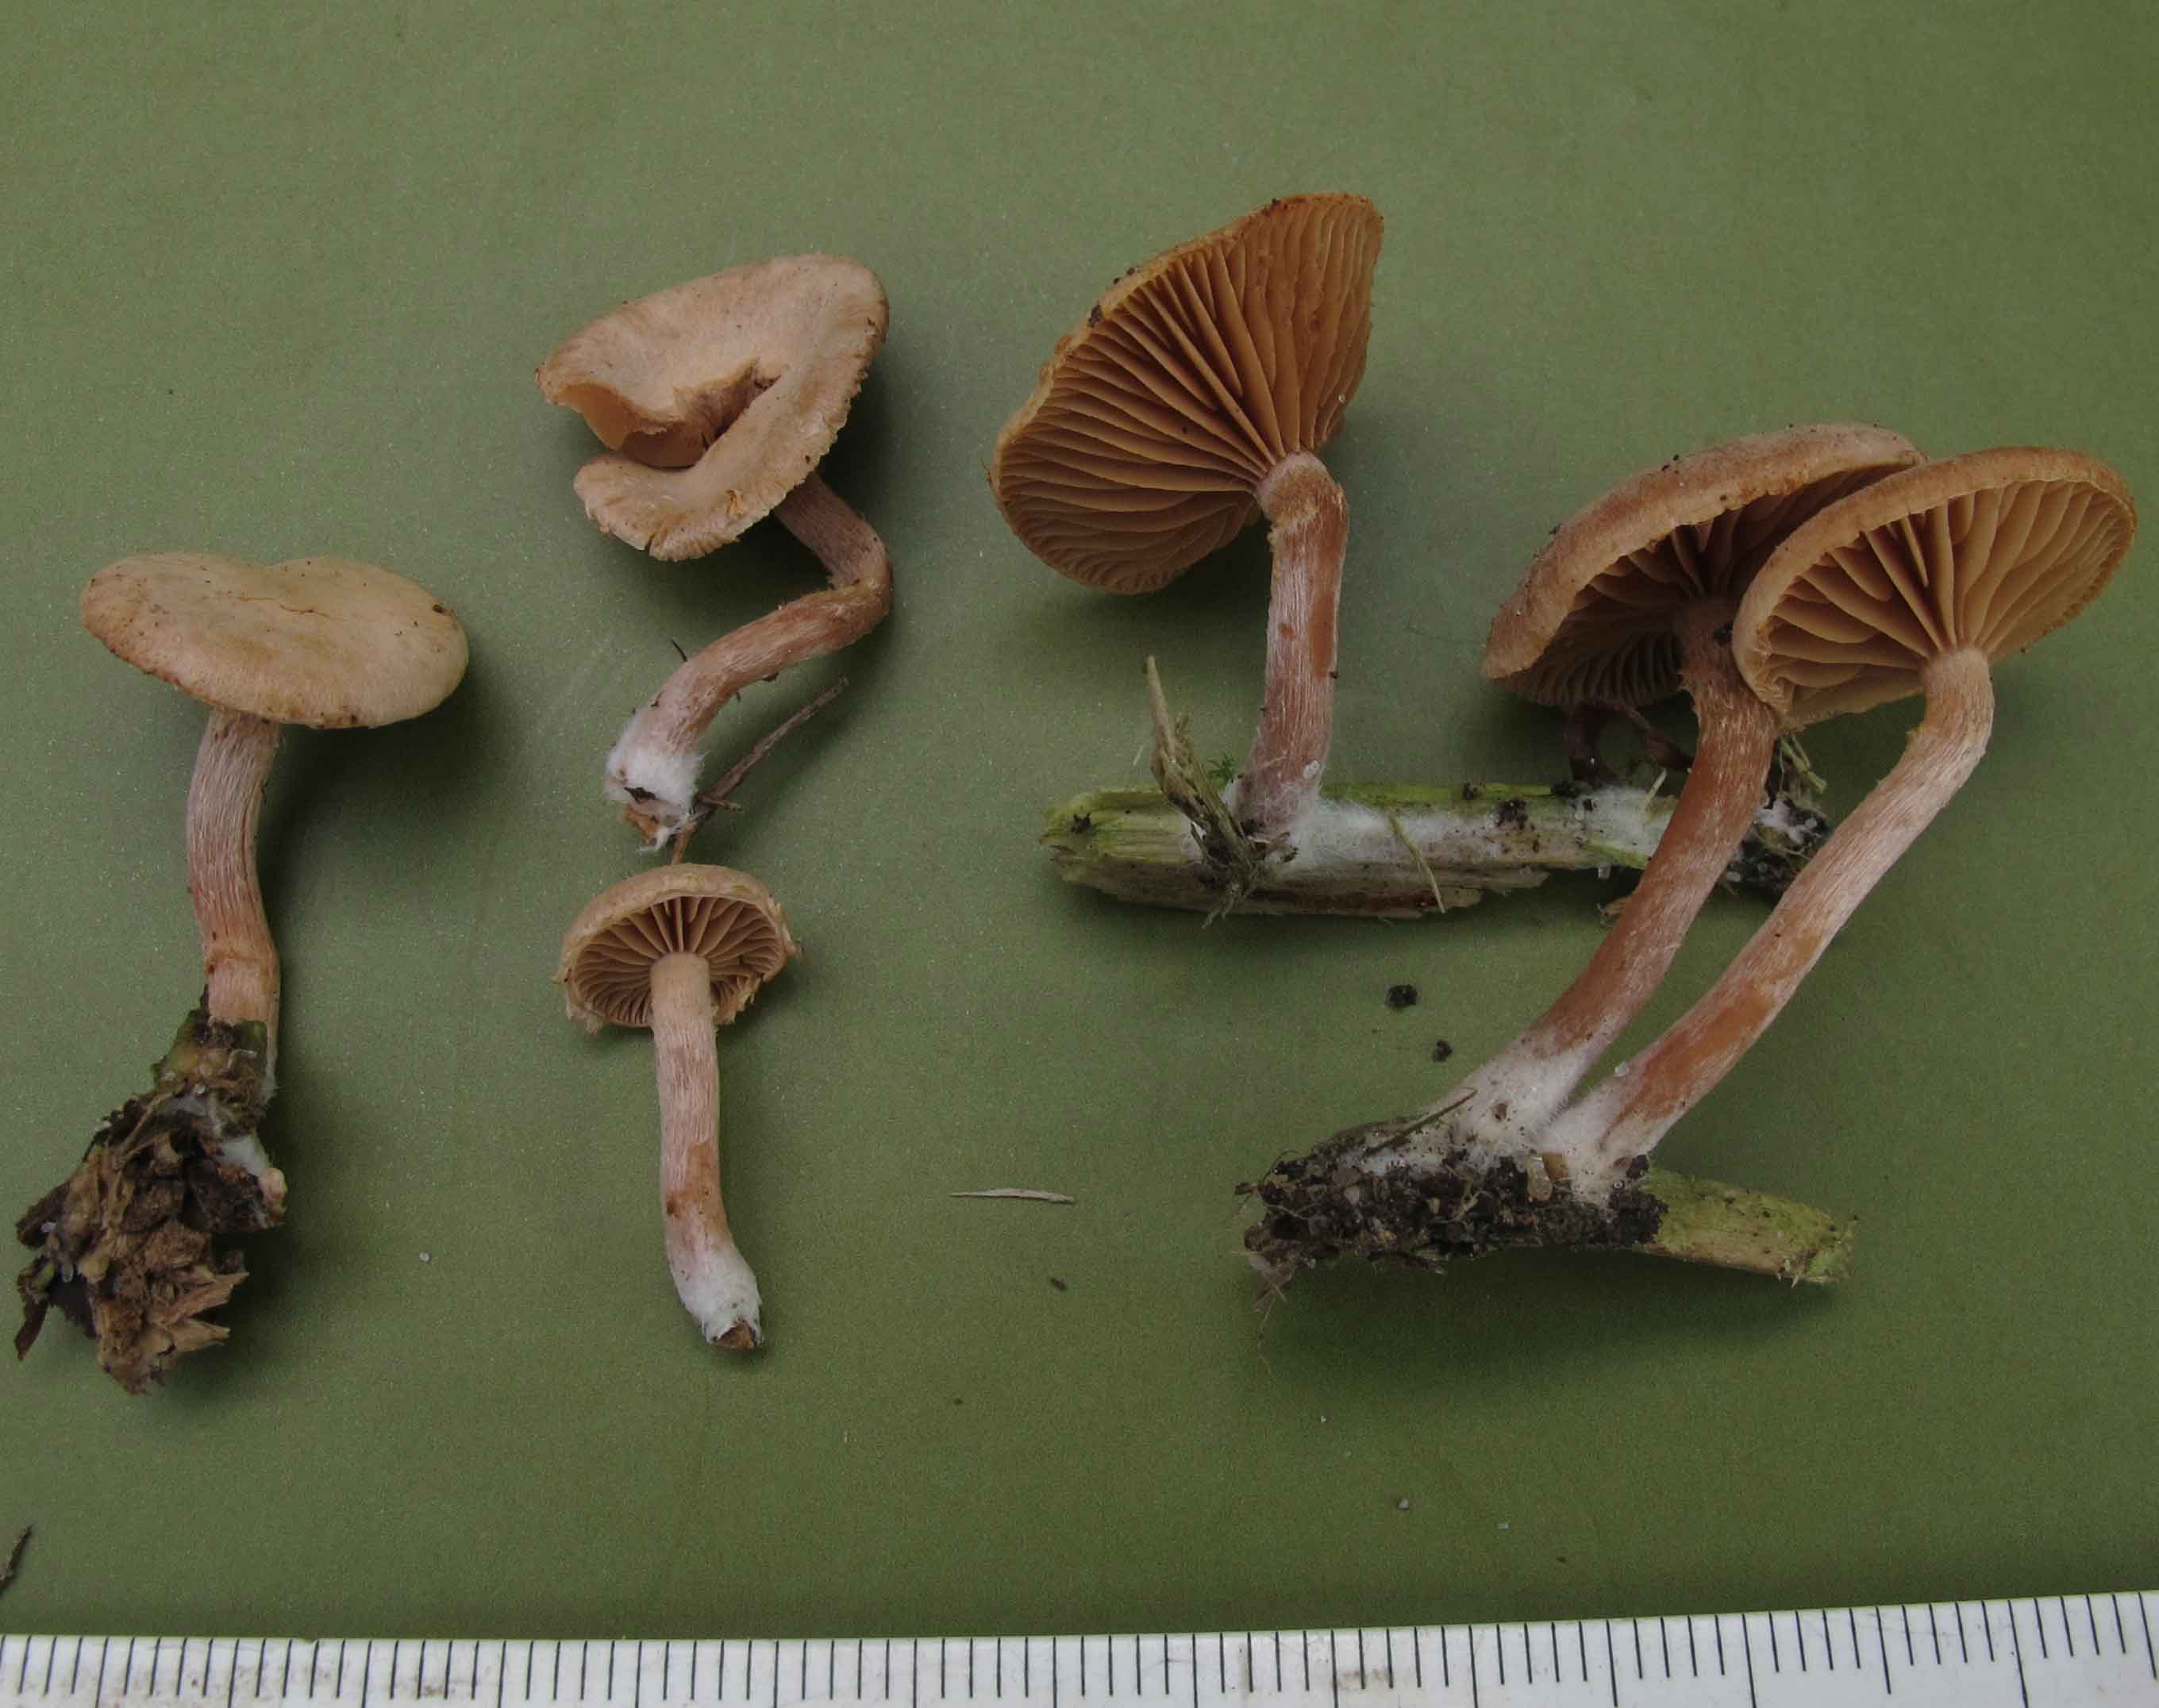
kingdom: Fungi
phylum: Basidiomycota
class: Agaricomycetes
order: Agaricales
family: Tubariaceae
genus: Tubaria
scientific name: Tubaria conspersa
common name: bleg fnughat
